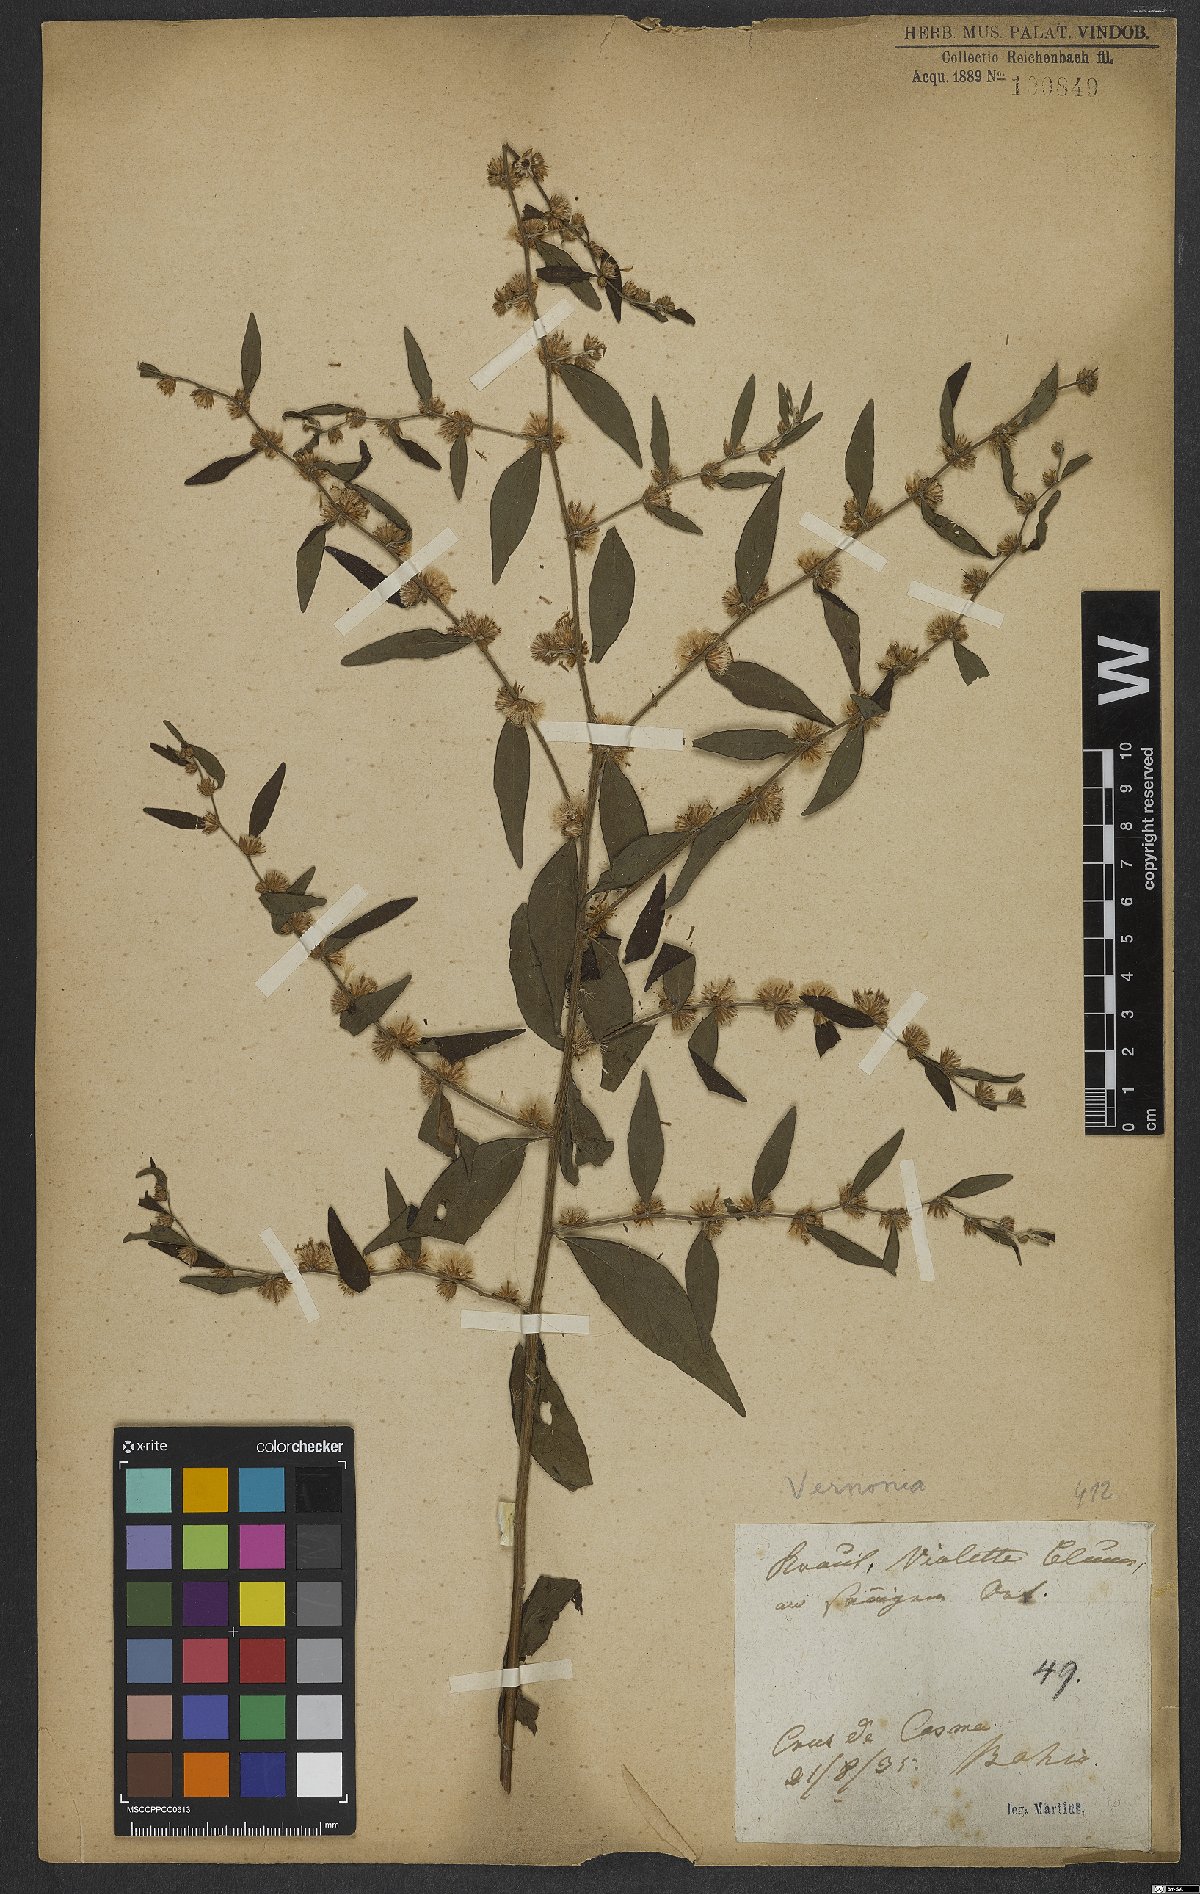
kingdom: Plantae
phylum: Tracheophyta
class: Magnoliopsida
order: Asterales
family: Asteraceae
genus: Vernonia
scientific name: Vernonia
